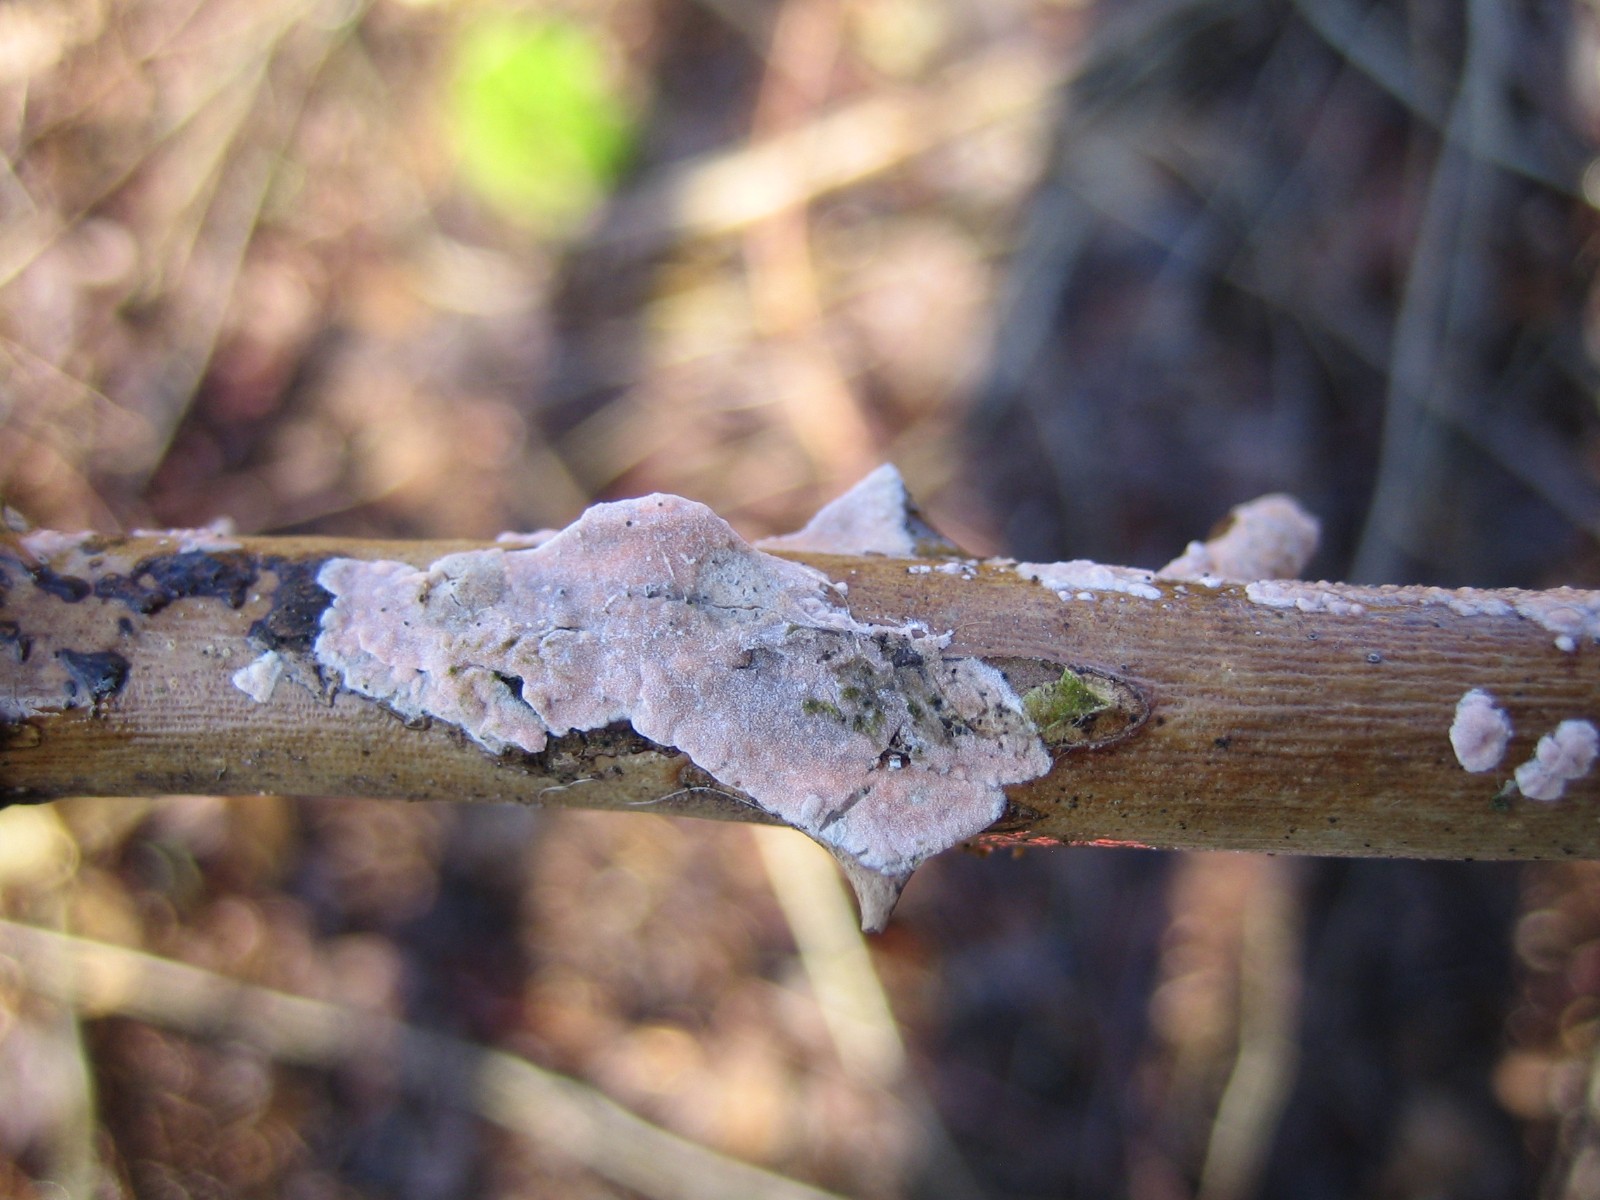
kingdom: Fungi
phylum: Basidiomycota
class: Agaricomycetes
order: Corticiales
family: Corticiaceae
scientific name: Corticiaceae
